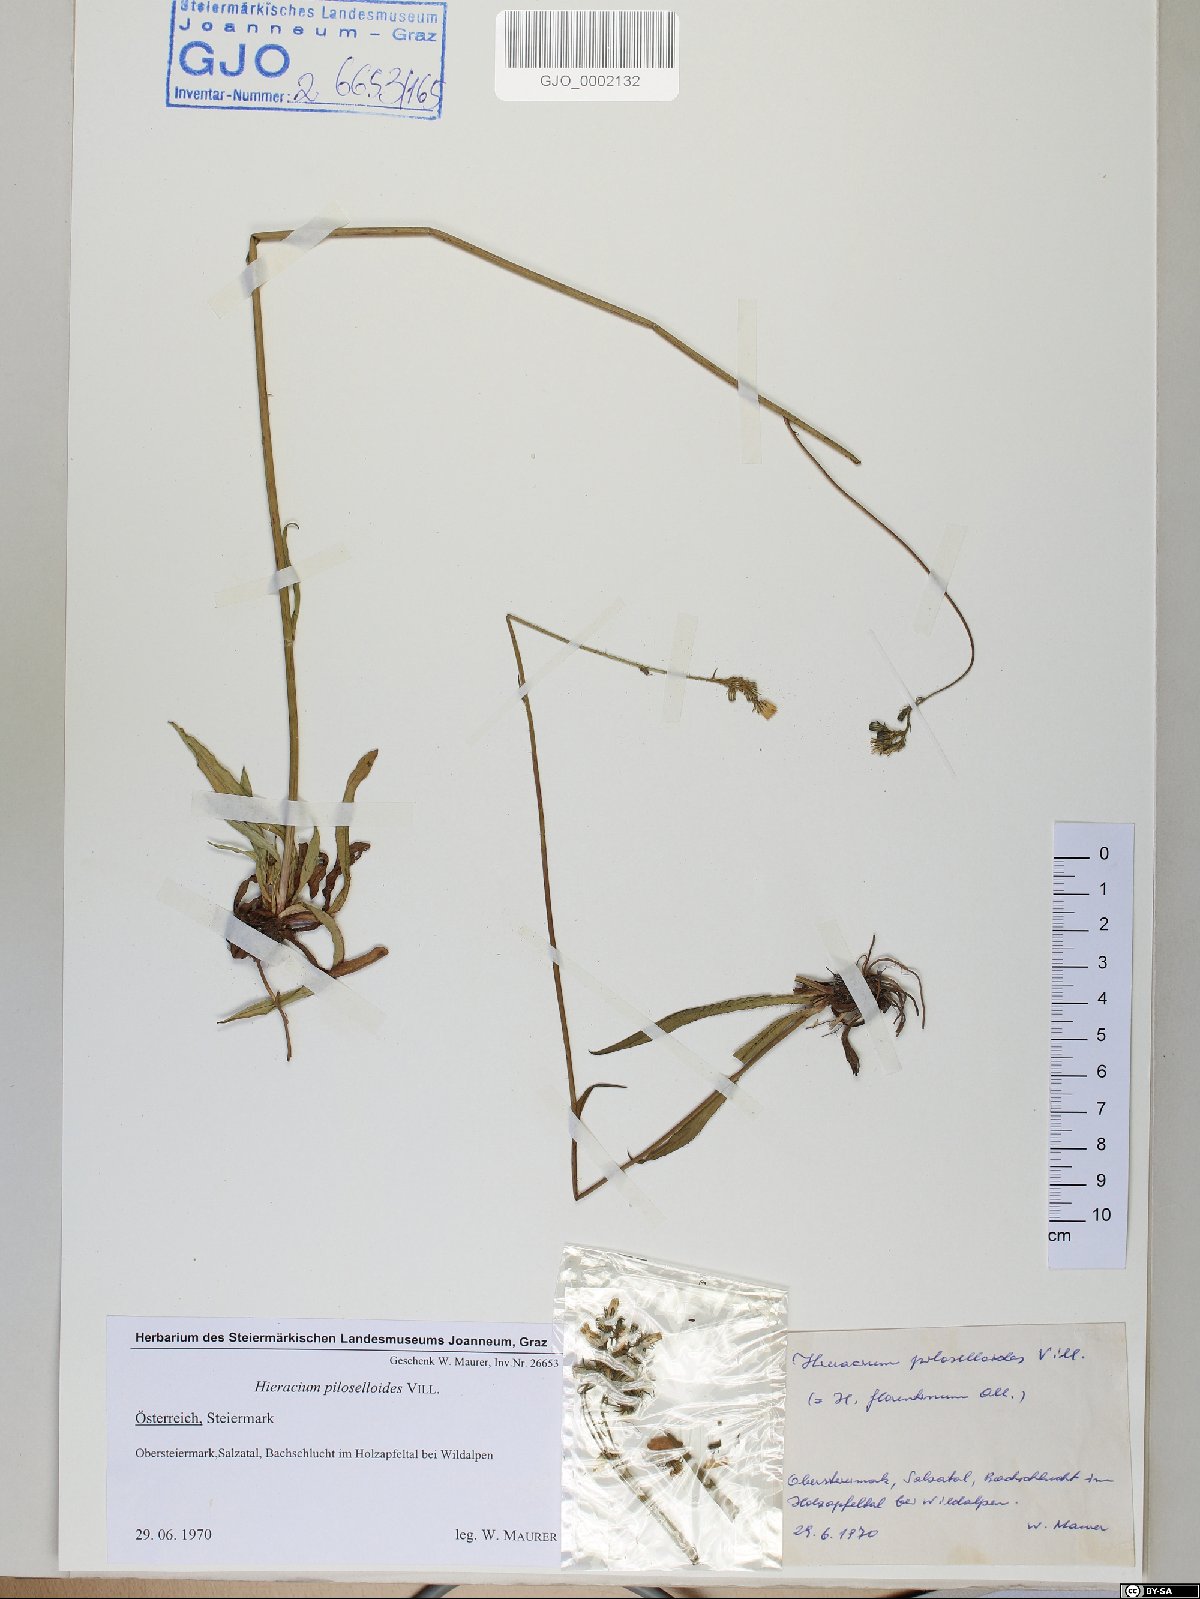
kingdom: Plantae
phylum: Tracheophyta
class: Magnoliopsida
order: Asterales
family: Asteraceae
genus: Pilosella
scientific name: Pilosella piloselloides
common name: Glaucous king-devil
